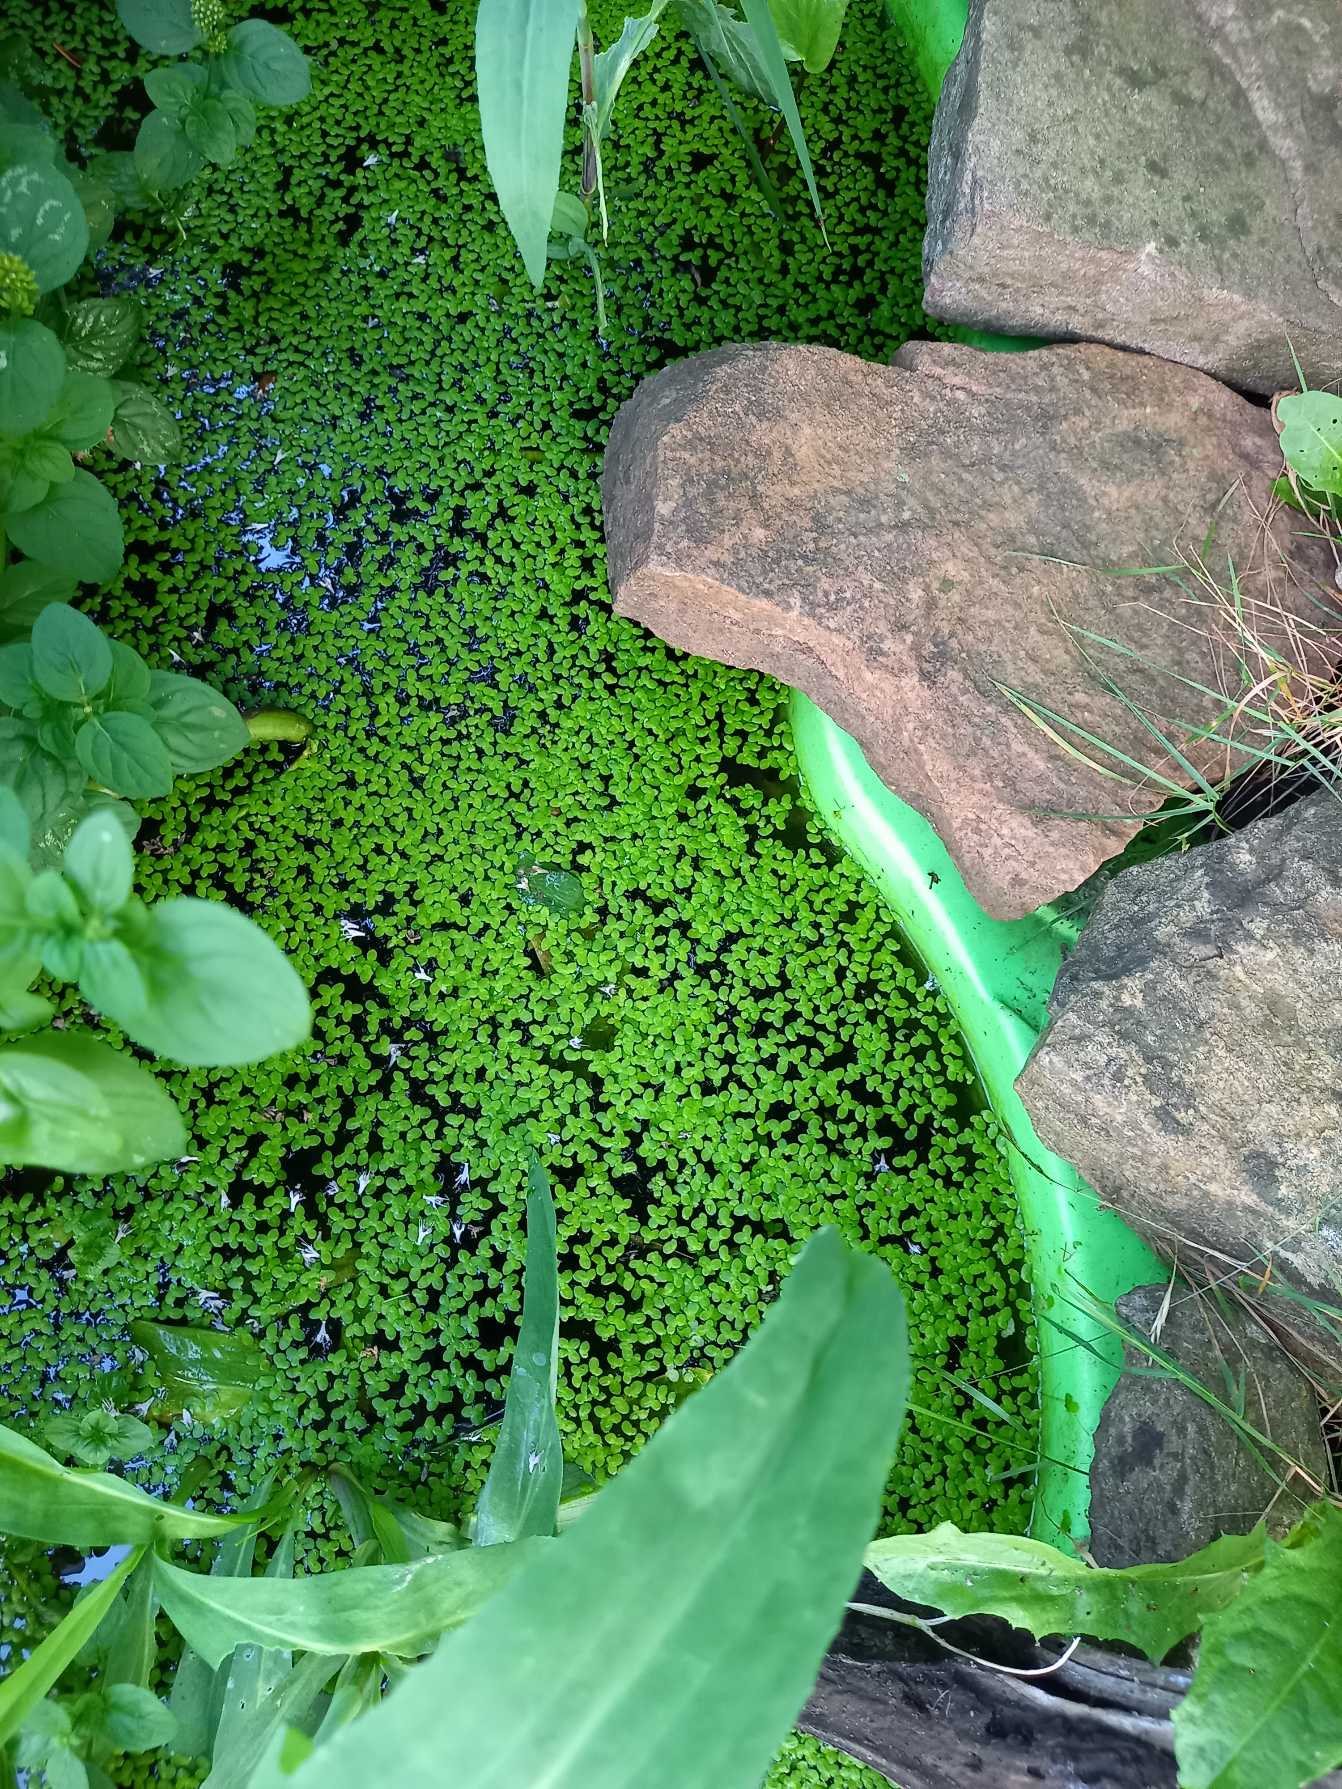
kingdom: Plantae
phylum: Tracheophyta
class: Liliopsida
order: Alismatales
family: Araceae
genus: Lemna
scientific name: Lemna minor
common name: Liden andemad
